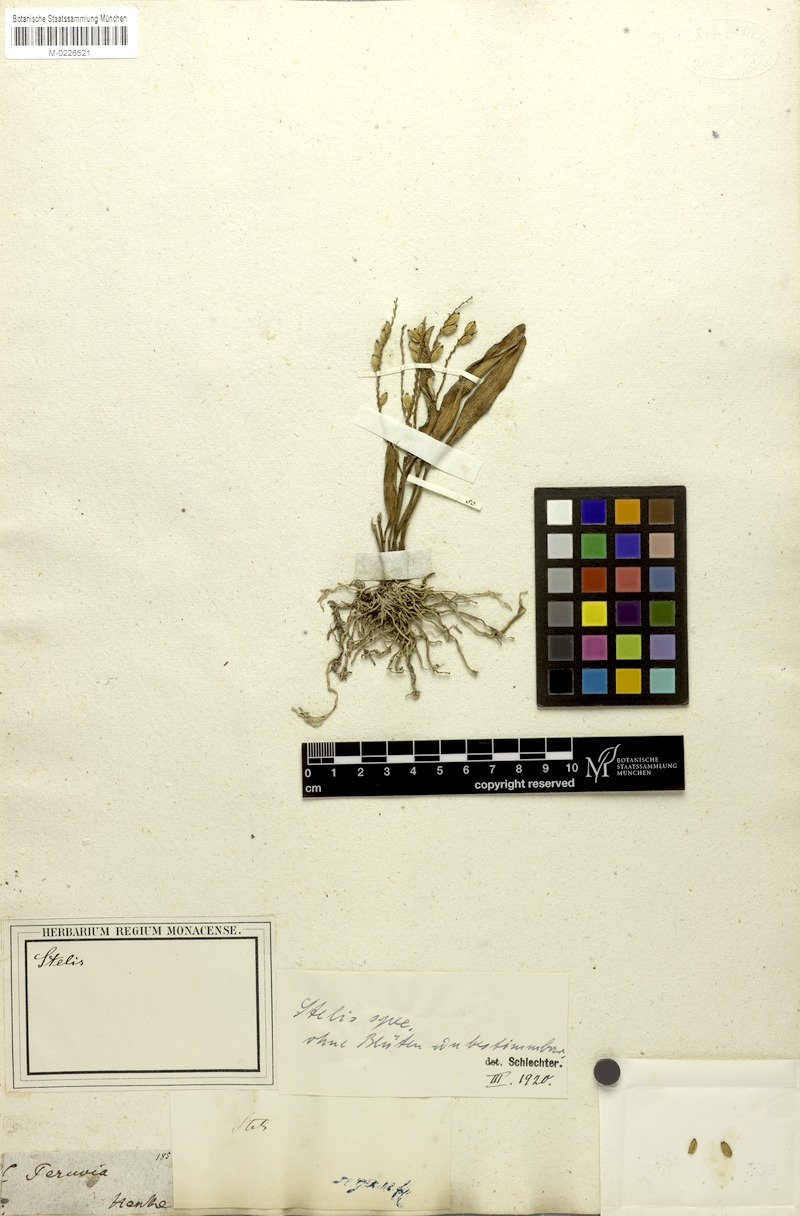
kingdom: Plantae
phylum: Tracheophyta
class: Liliopsida
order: Asparagales
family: Orchidaceae
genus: Stelis
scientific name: Stelis
